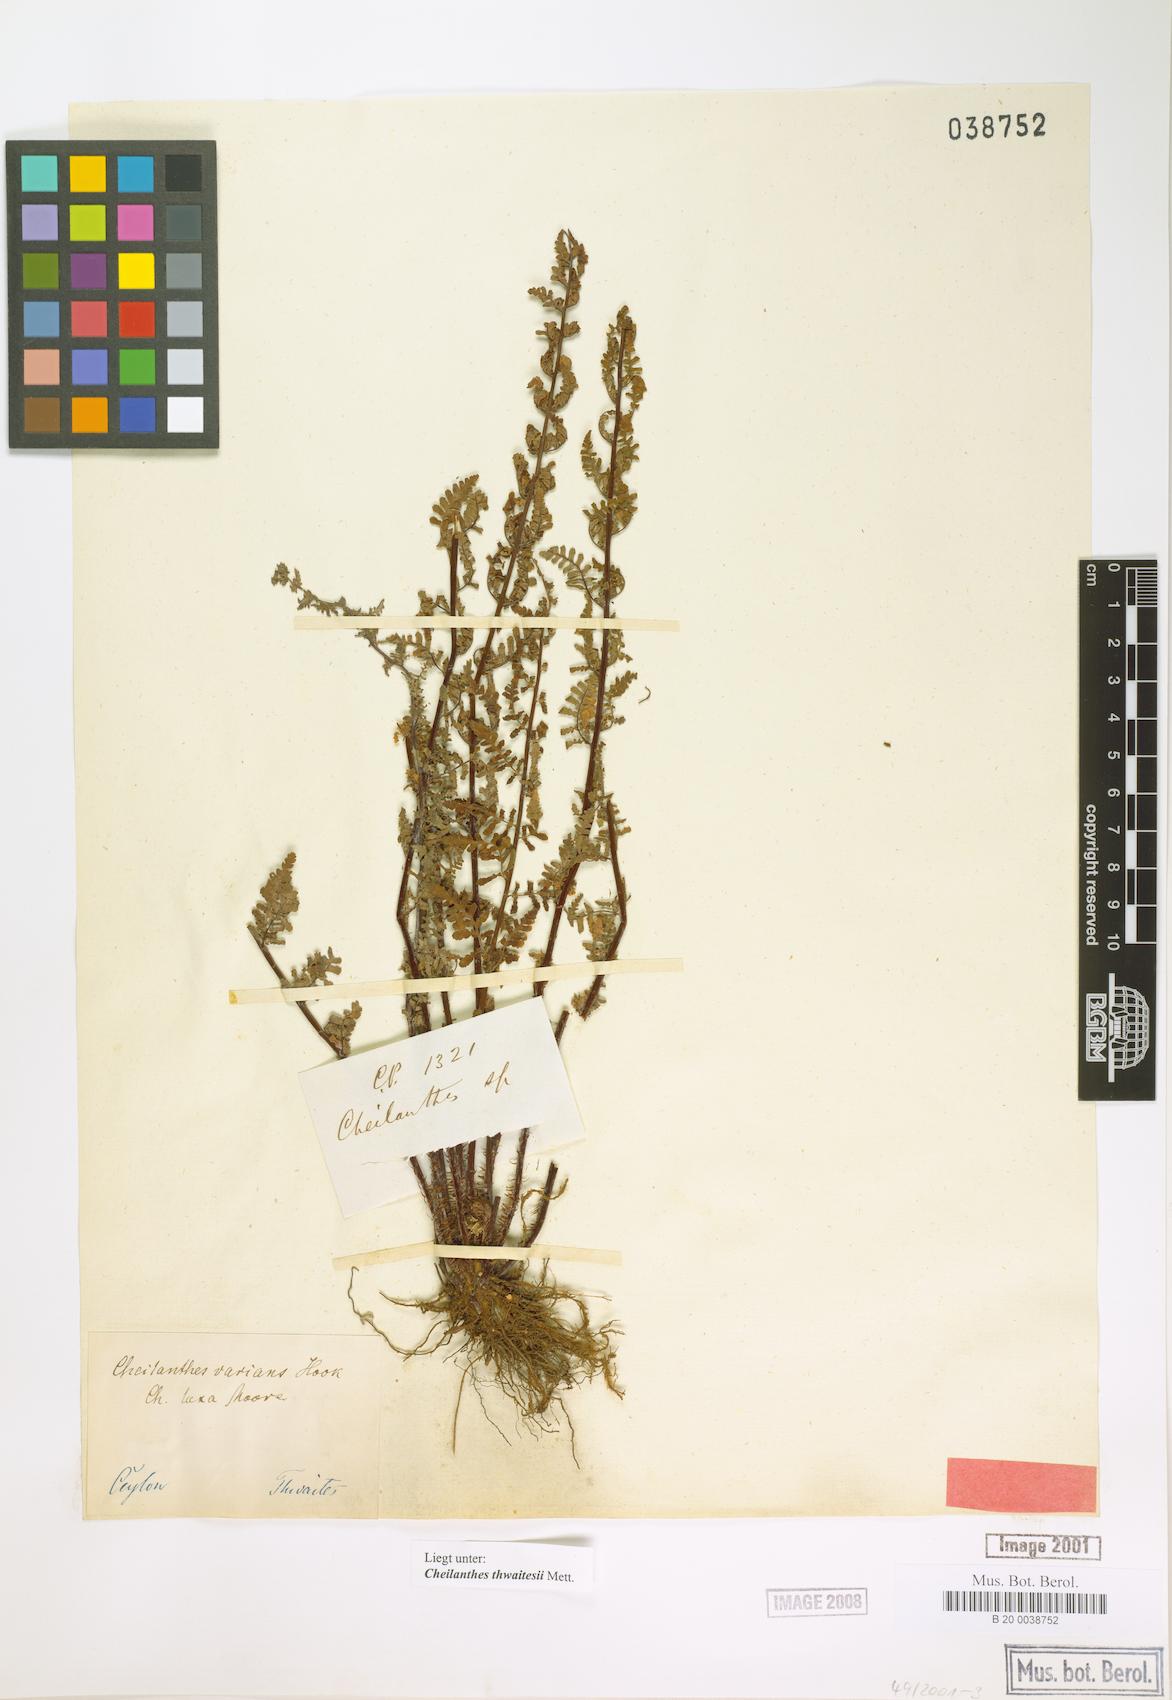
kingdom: Plantae
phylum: Tracheophyta
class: Polypodiopsida
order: Polypodiales
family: Pteridaceae
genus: Oeosporangium
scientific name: Oeosporangium thwaitesii
